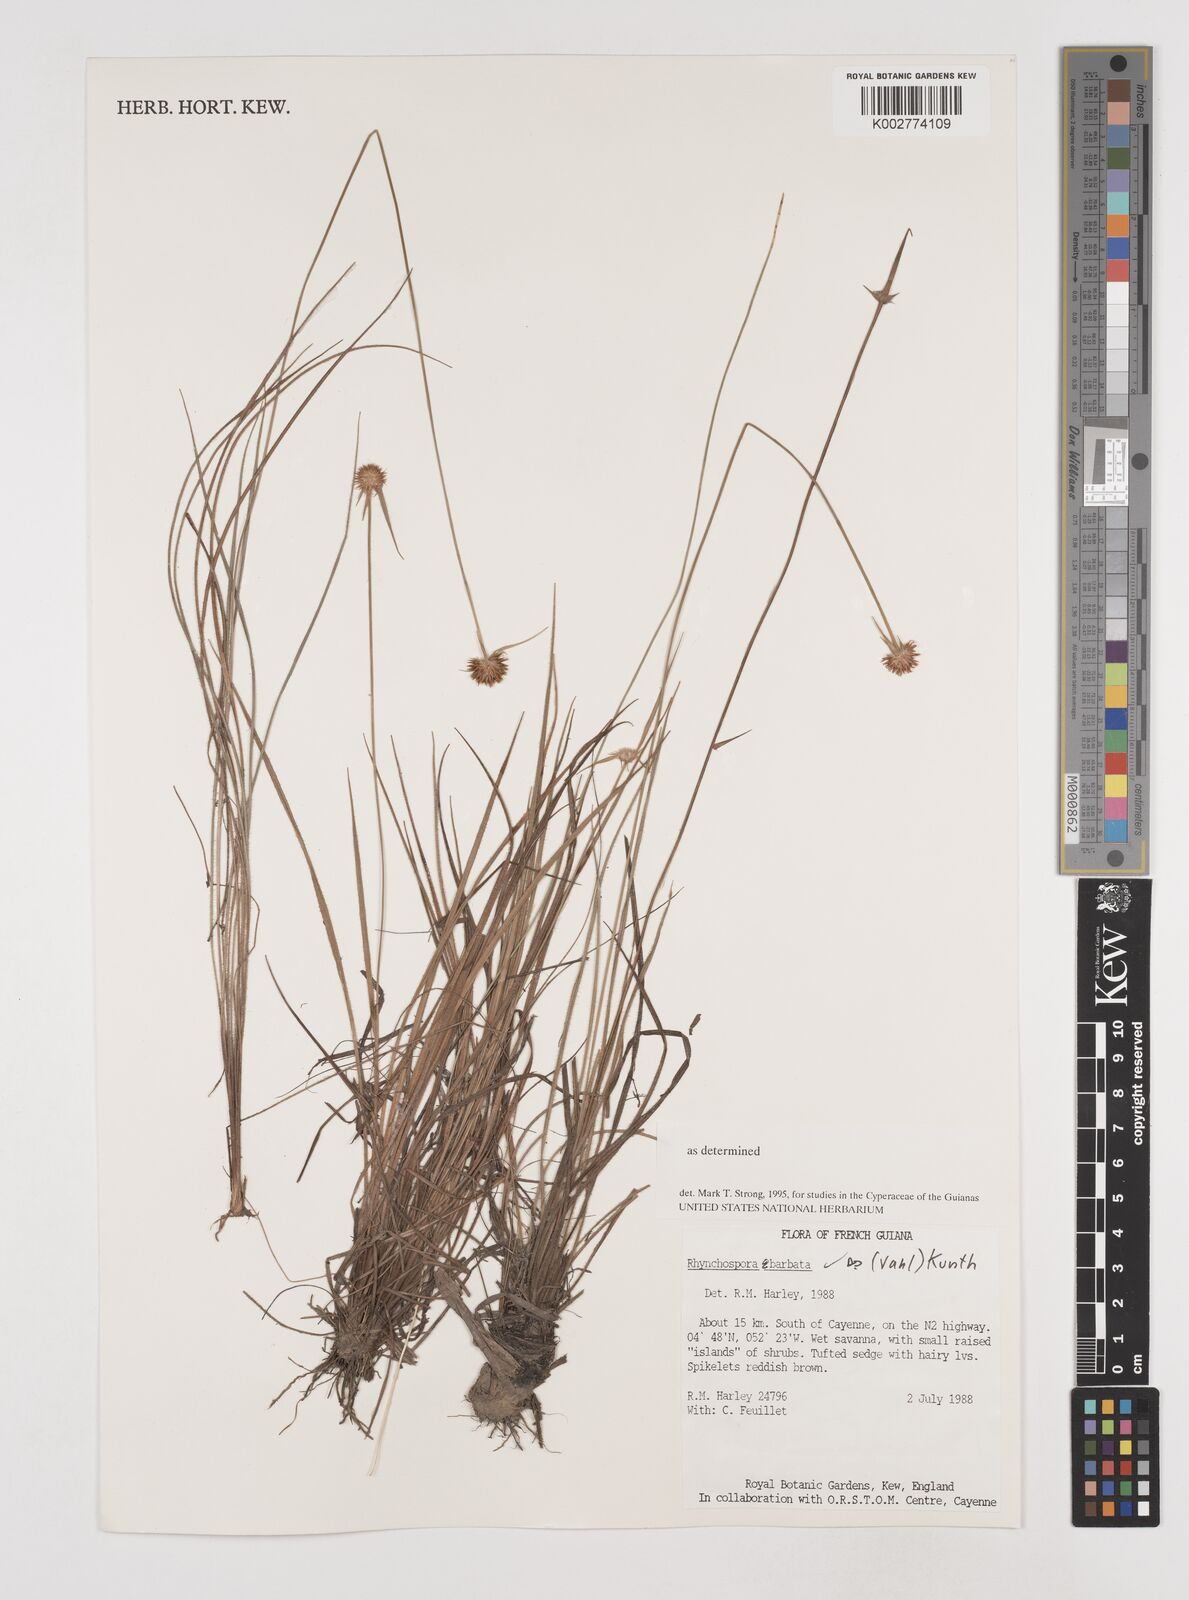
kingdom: Plantae
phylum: Tracheophyta
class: Liliopsida
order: Poales
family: Cyperaceae
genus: Rhynchospora
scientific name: Rhynchospora barbata
